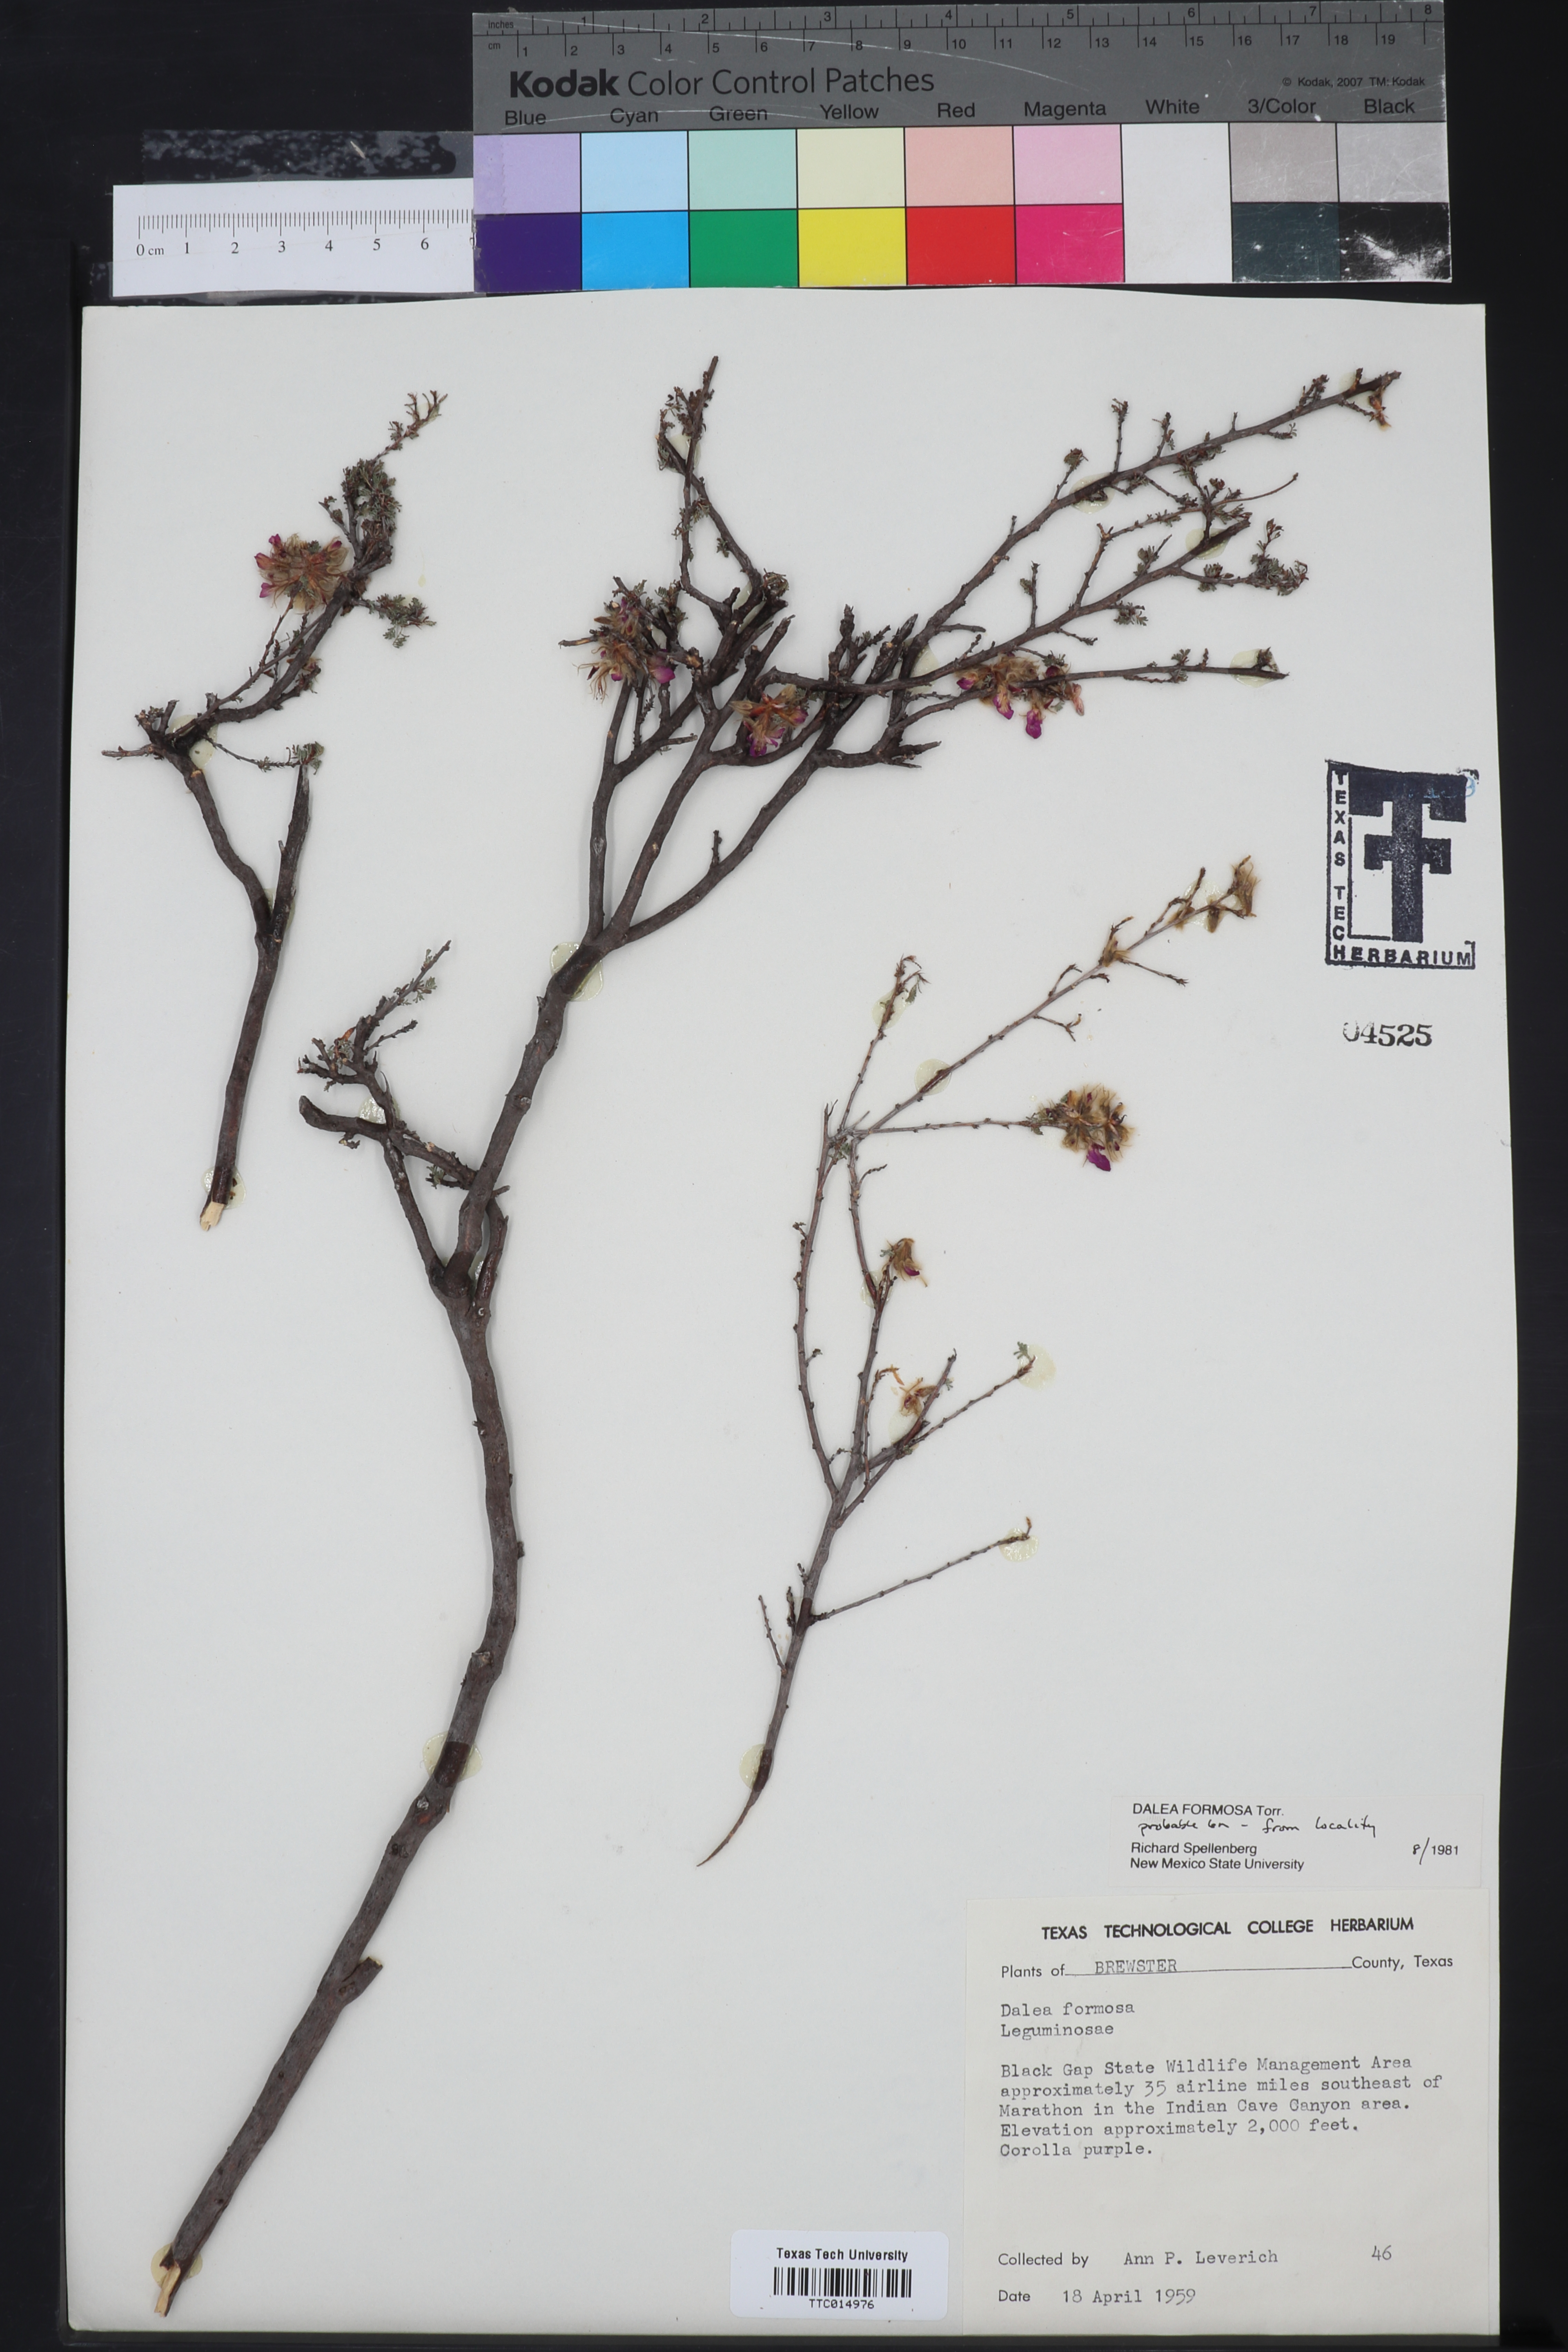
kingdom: Plantae
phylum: Tracheophyta
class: Magnoliopsida
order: Fabales
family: Fabaceae
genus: Dalea
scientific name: Dalea formosa
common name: Feather-plume dalea
